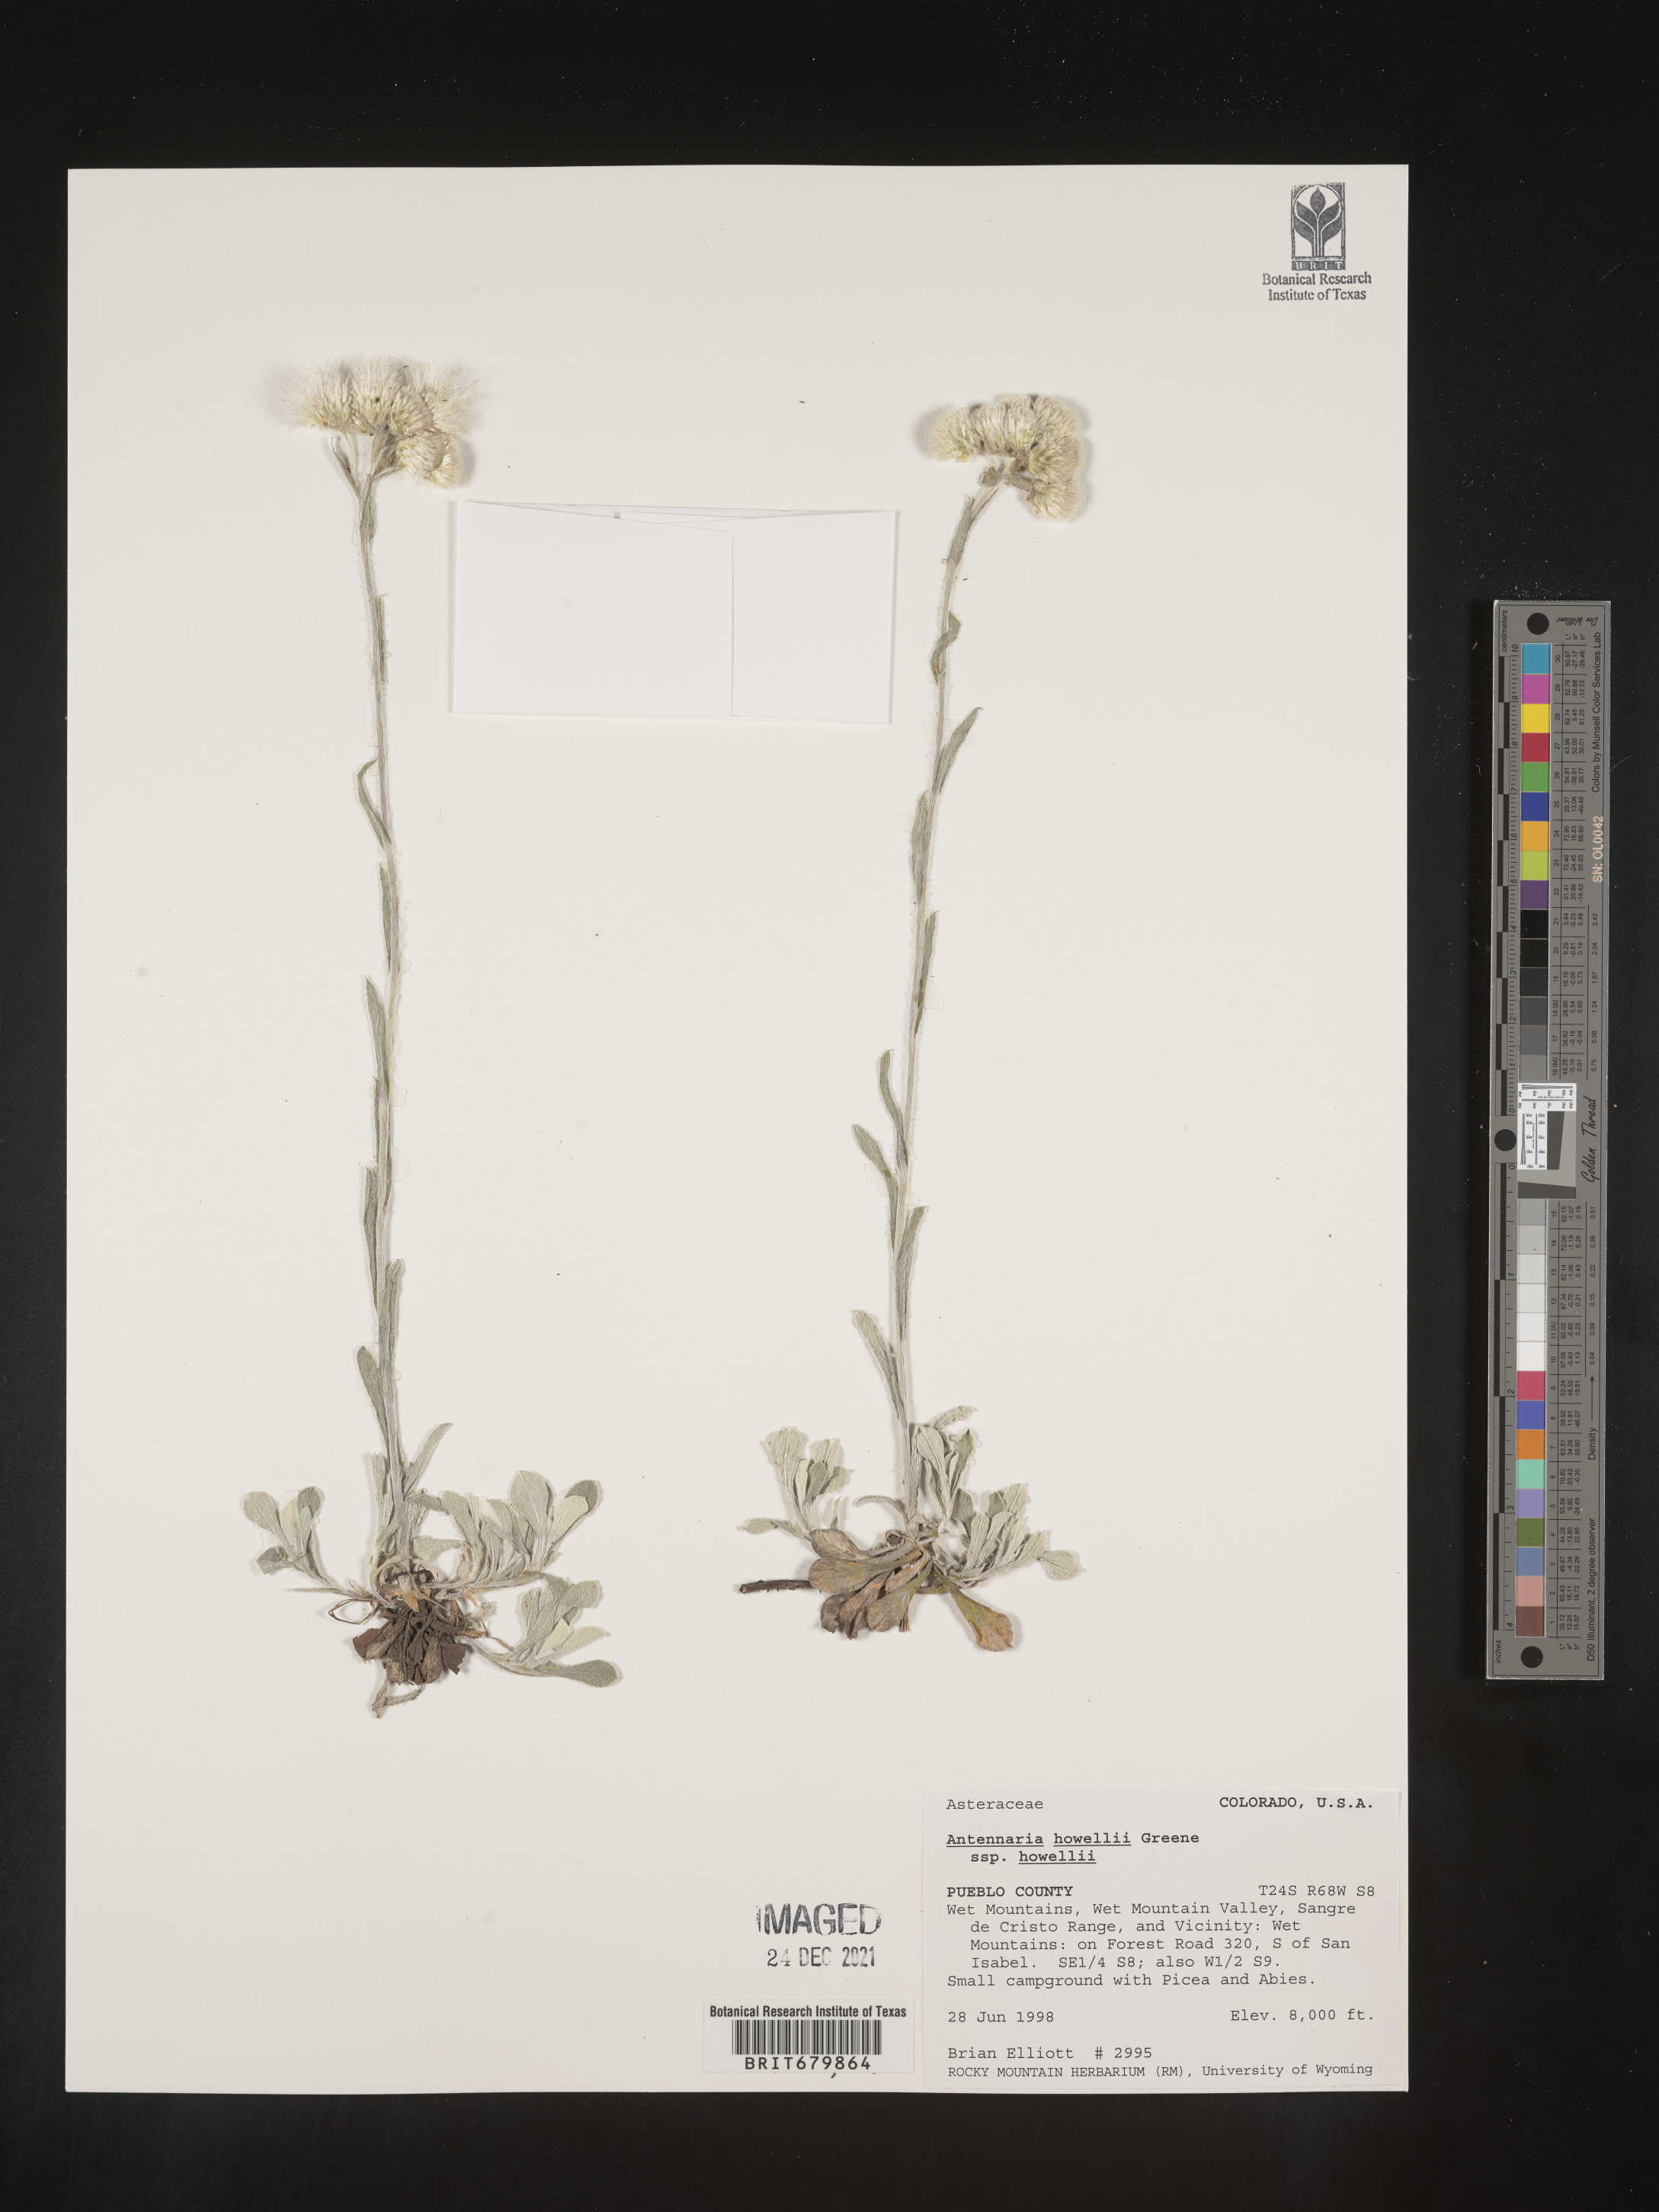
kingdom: Plantae
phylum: Tracheophyta
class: Magnoliopsida
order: Asterales
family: Asteraceae
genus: Antennaria
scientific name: Antennaria howellii
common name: Howell's pussytoes
